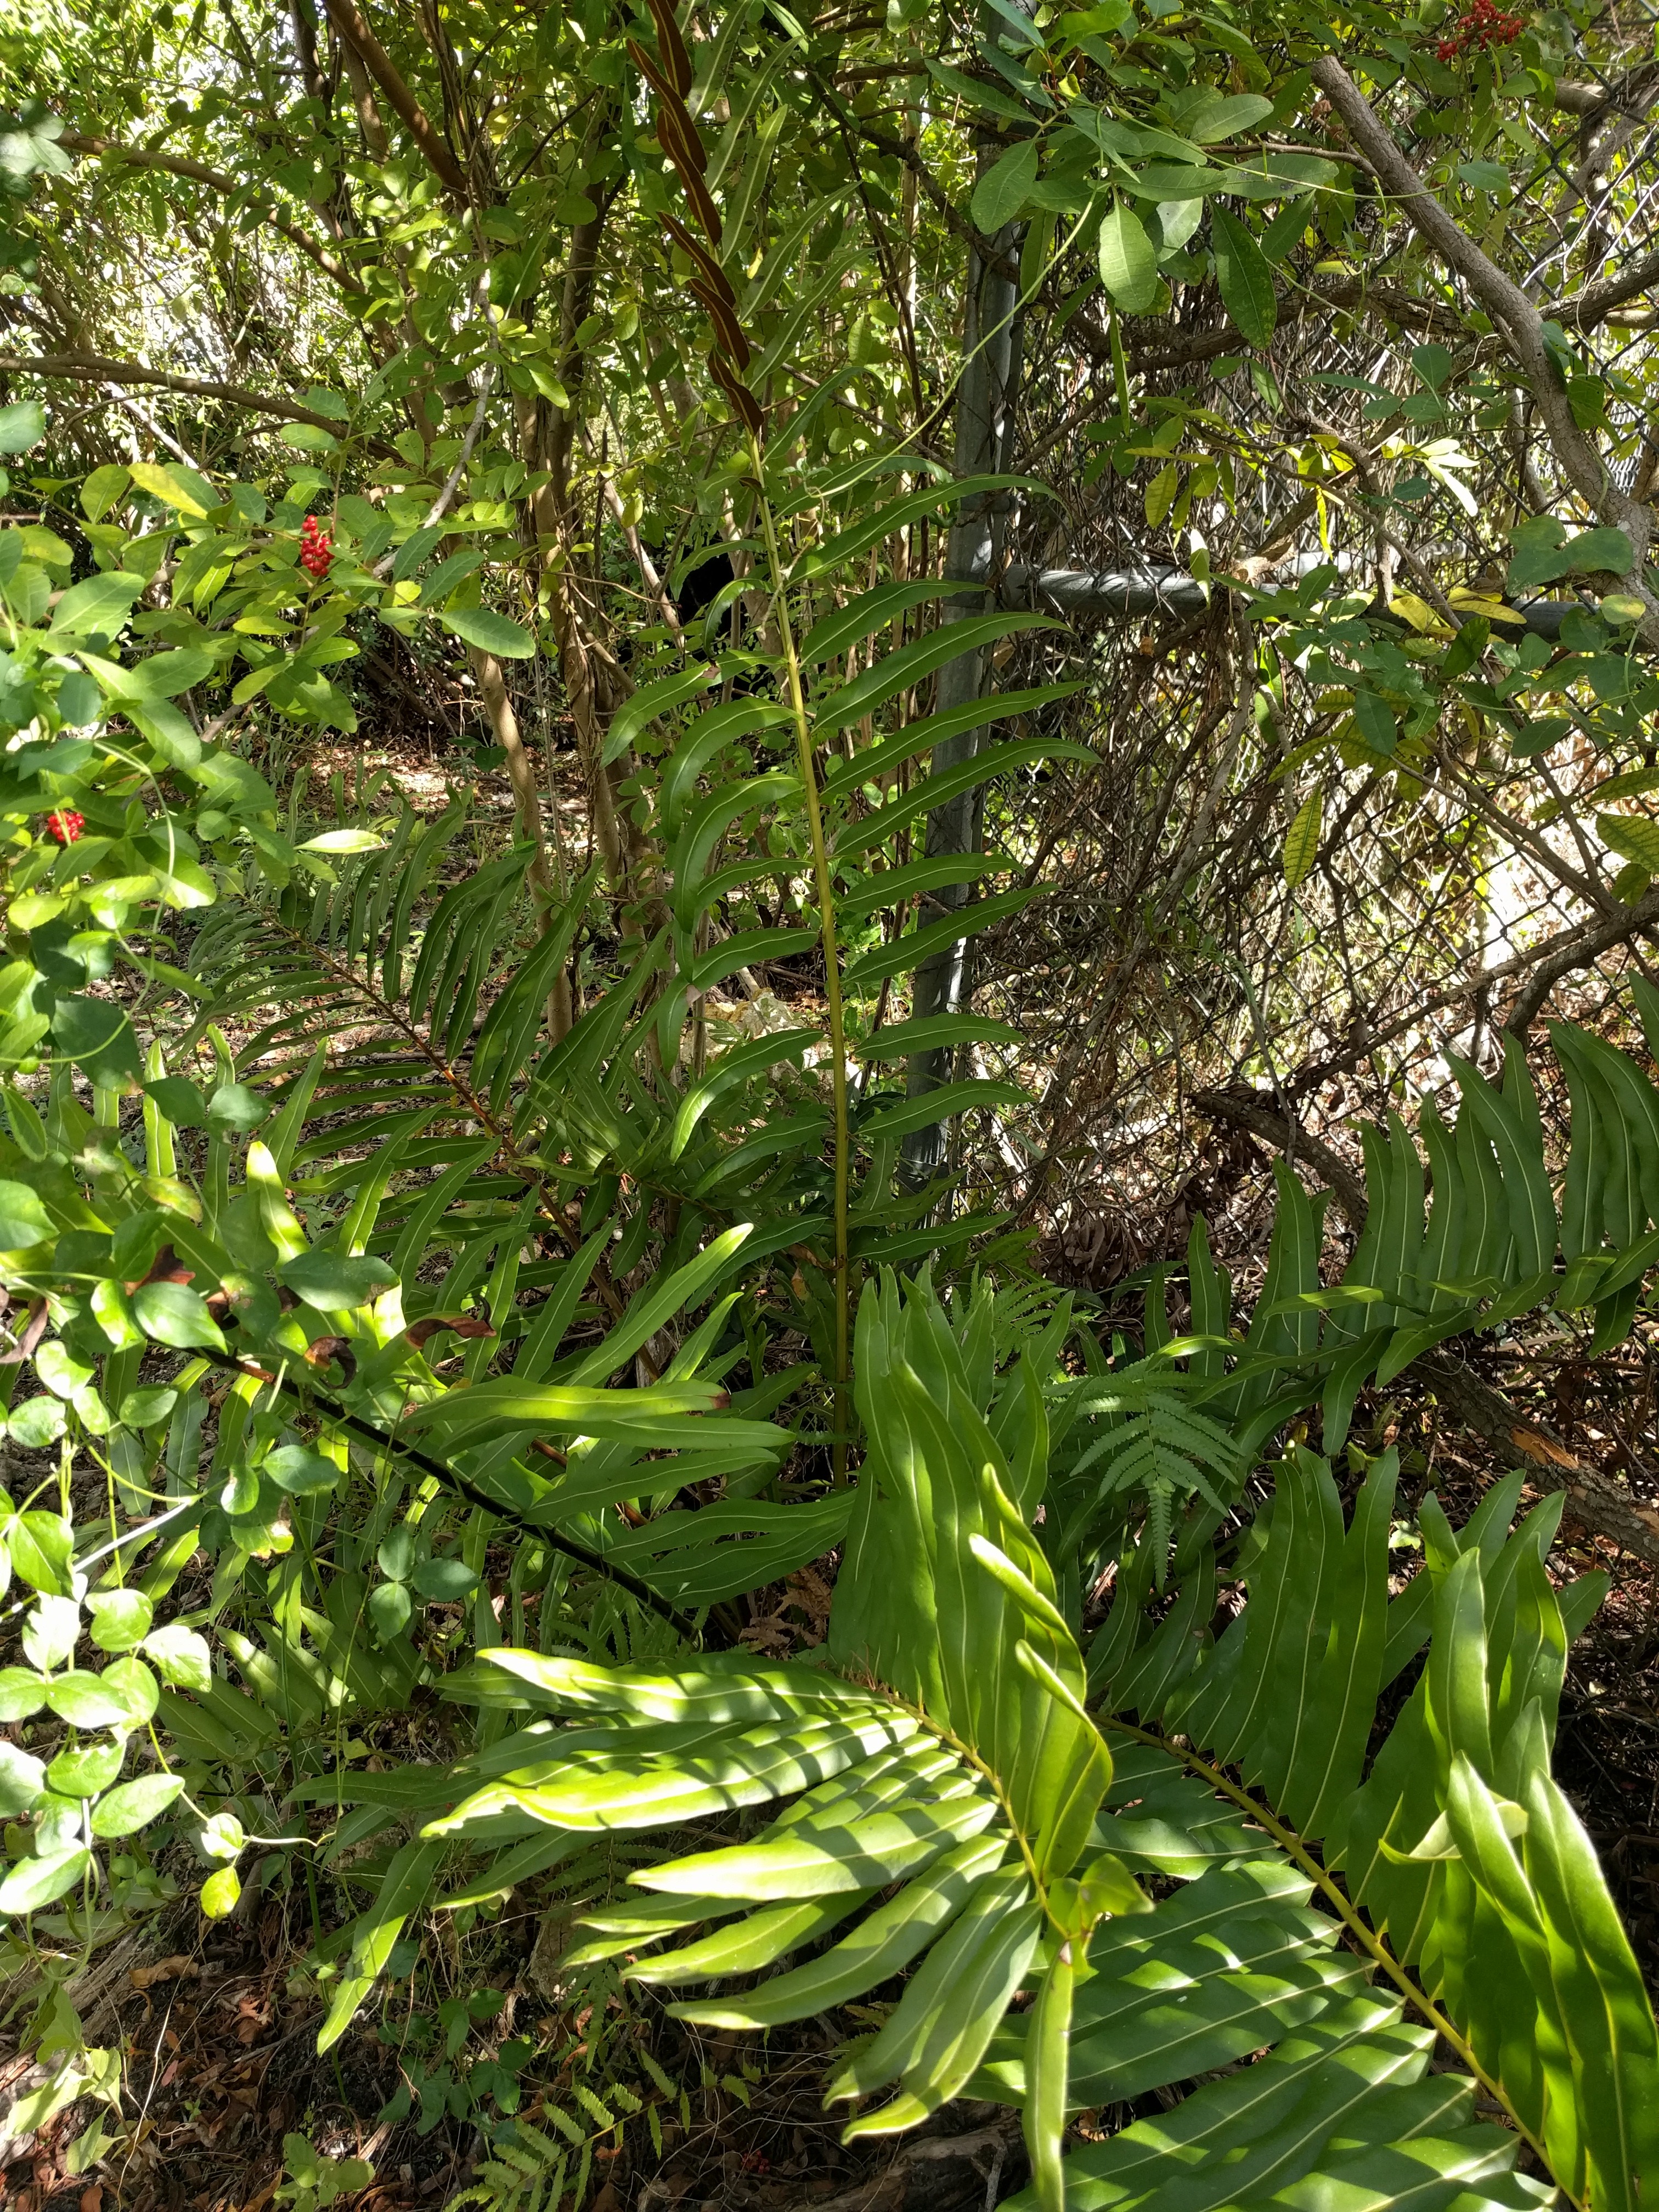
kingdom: Plantae
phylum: Tracheophyta
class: Polypodiopsida
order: Polypodiales
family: Pteridaceae
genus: Acrostichum
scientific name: Acrostichum danaeifolium
